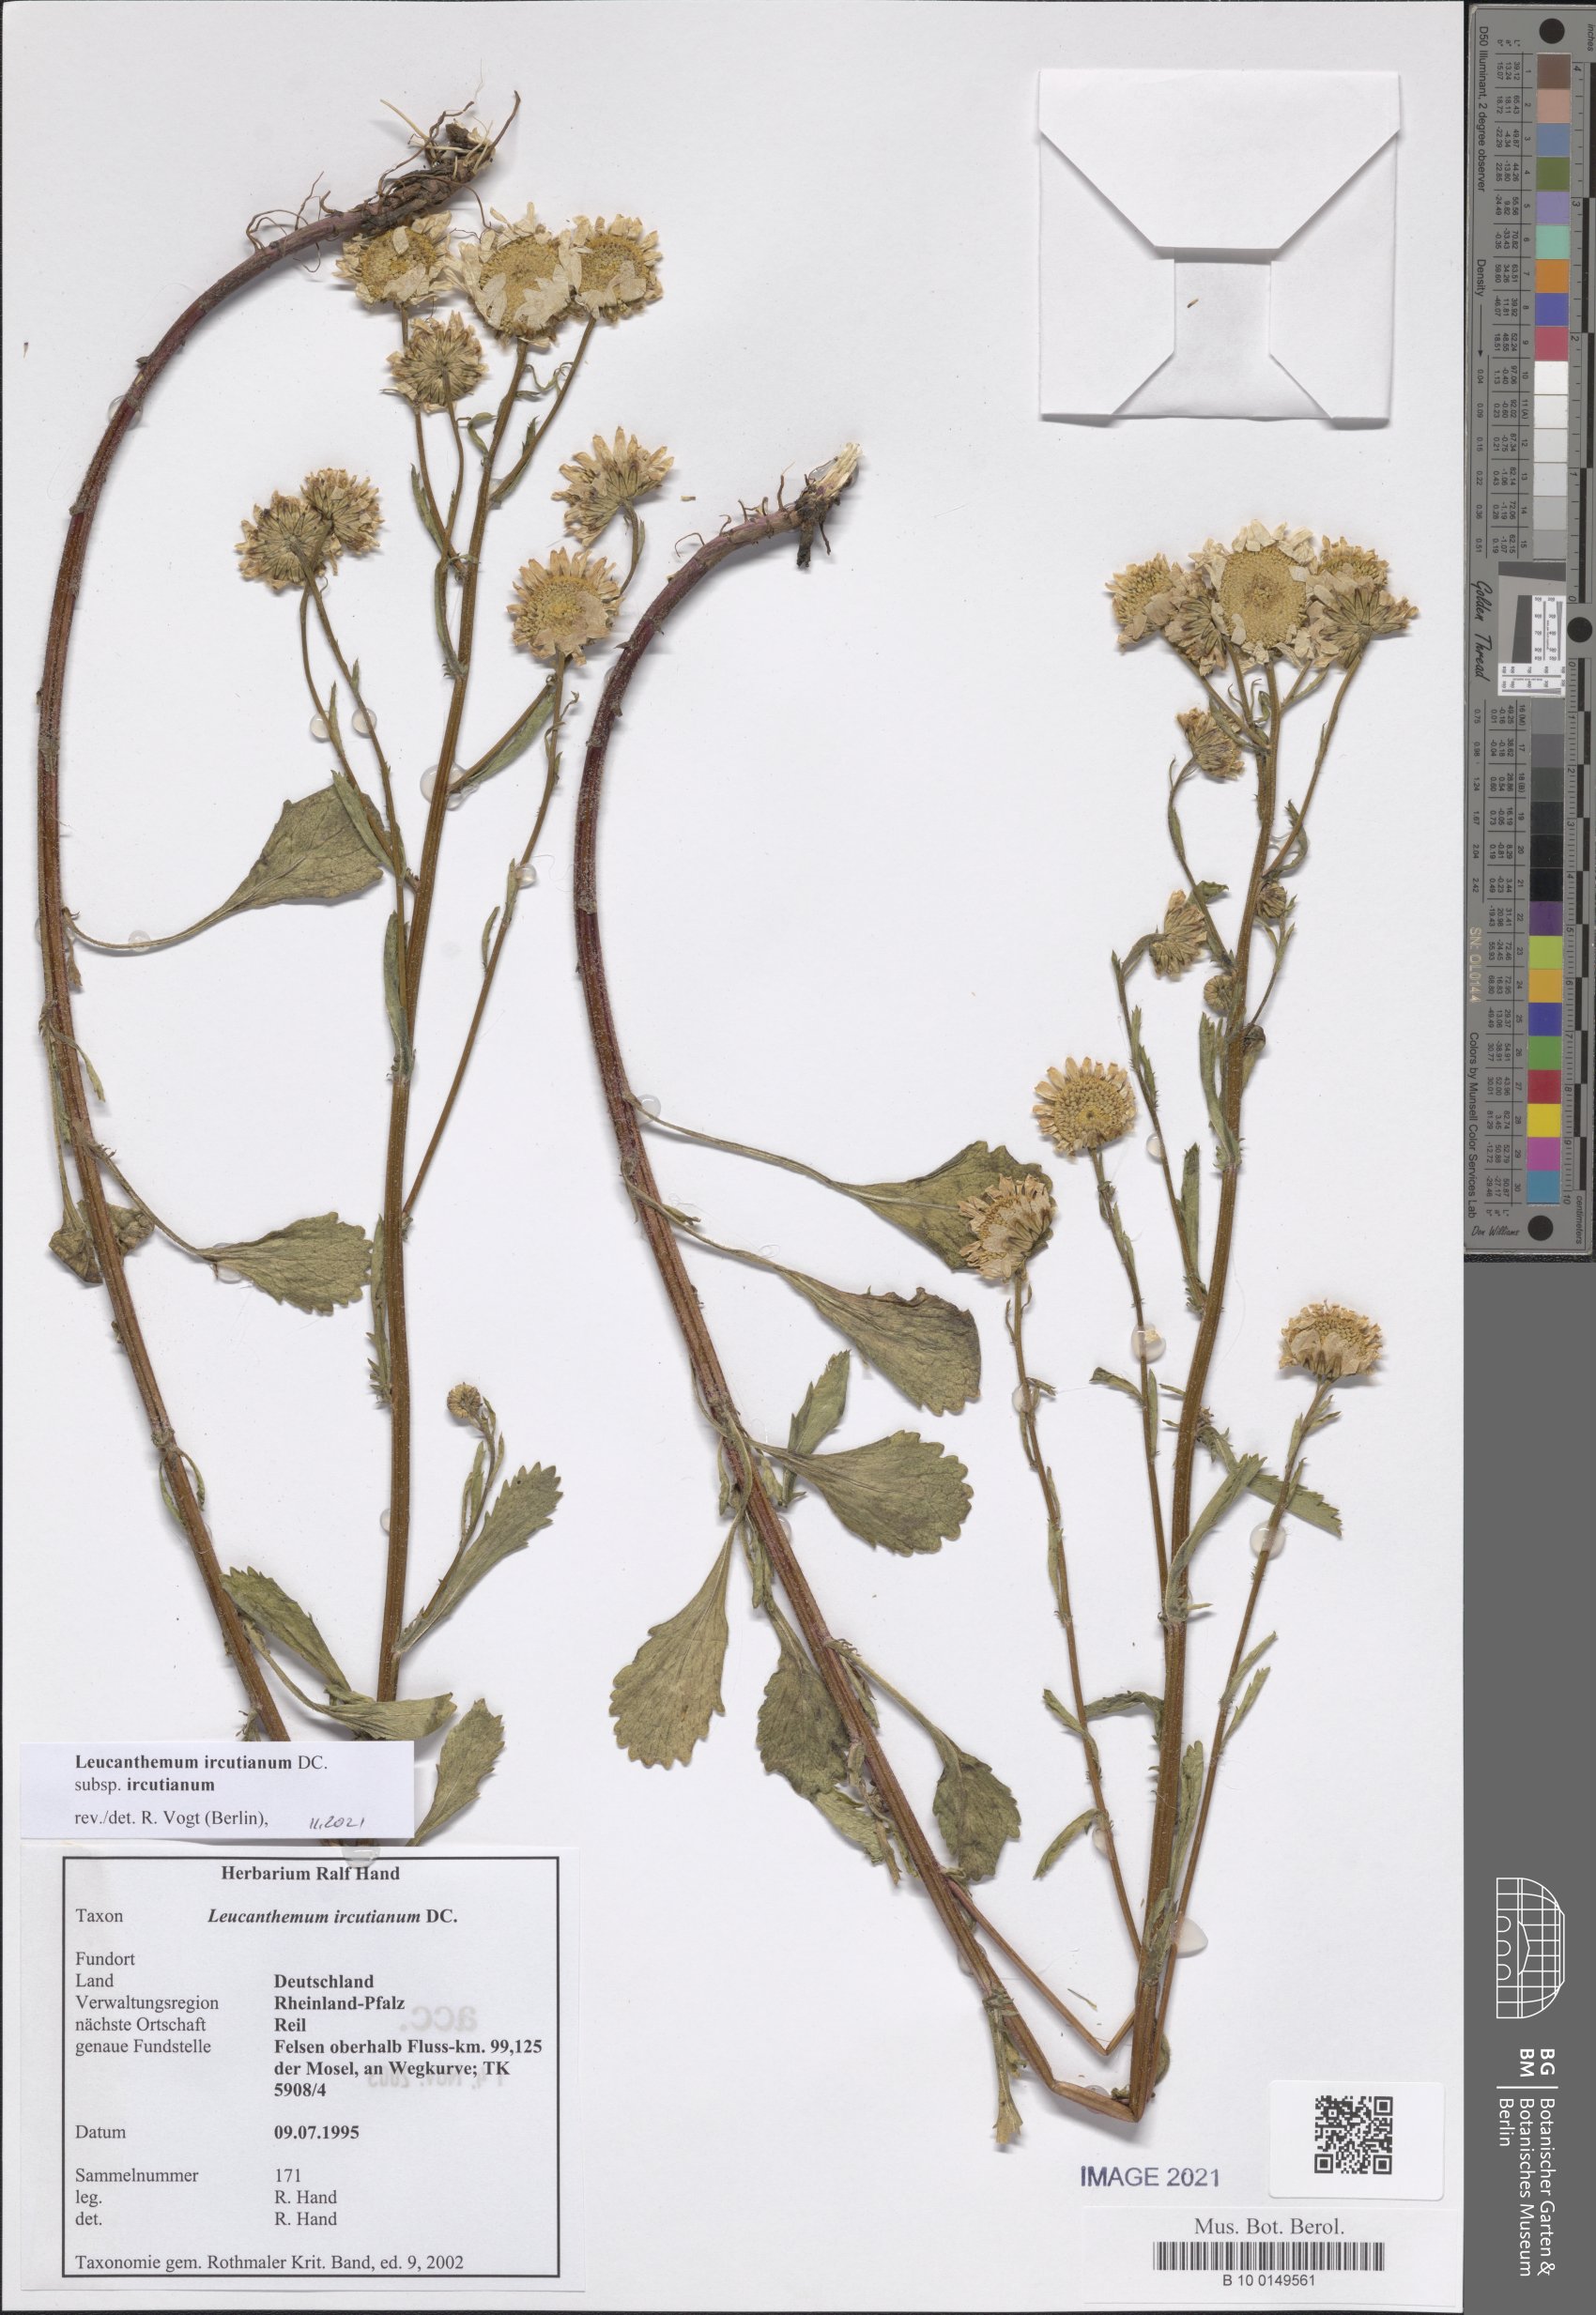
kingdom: Plantae
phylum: Tracheophyta
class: Magnoliopsida
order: Asterales
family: Asteraceae
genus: Leucanthemum
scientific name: Leucanthemum ircutianum
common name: Daisy
